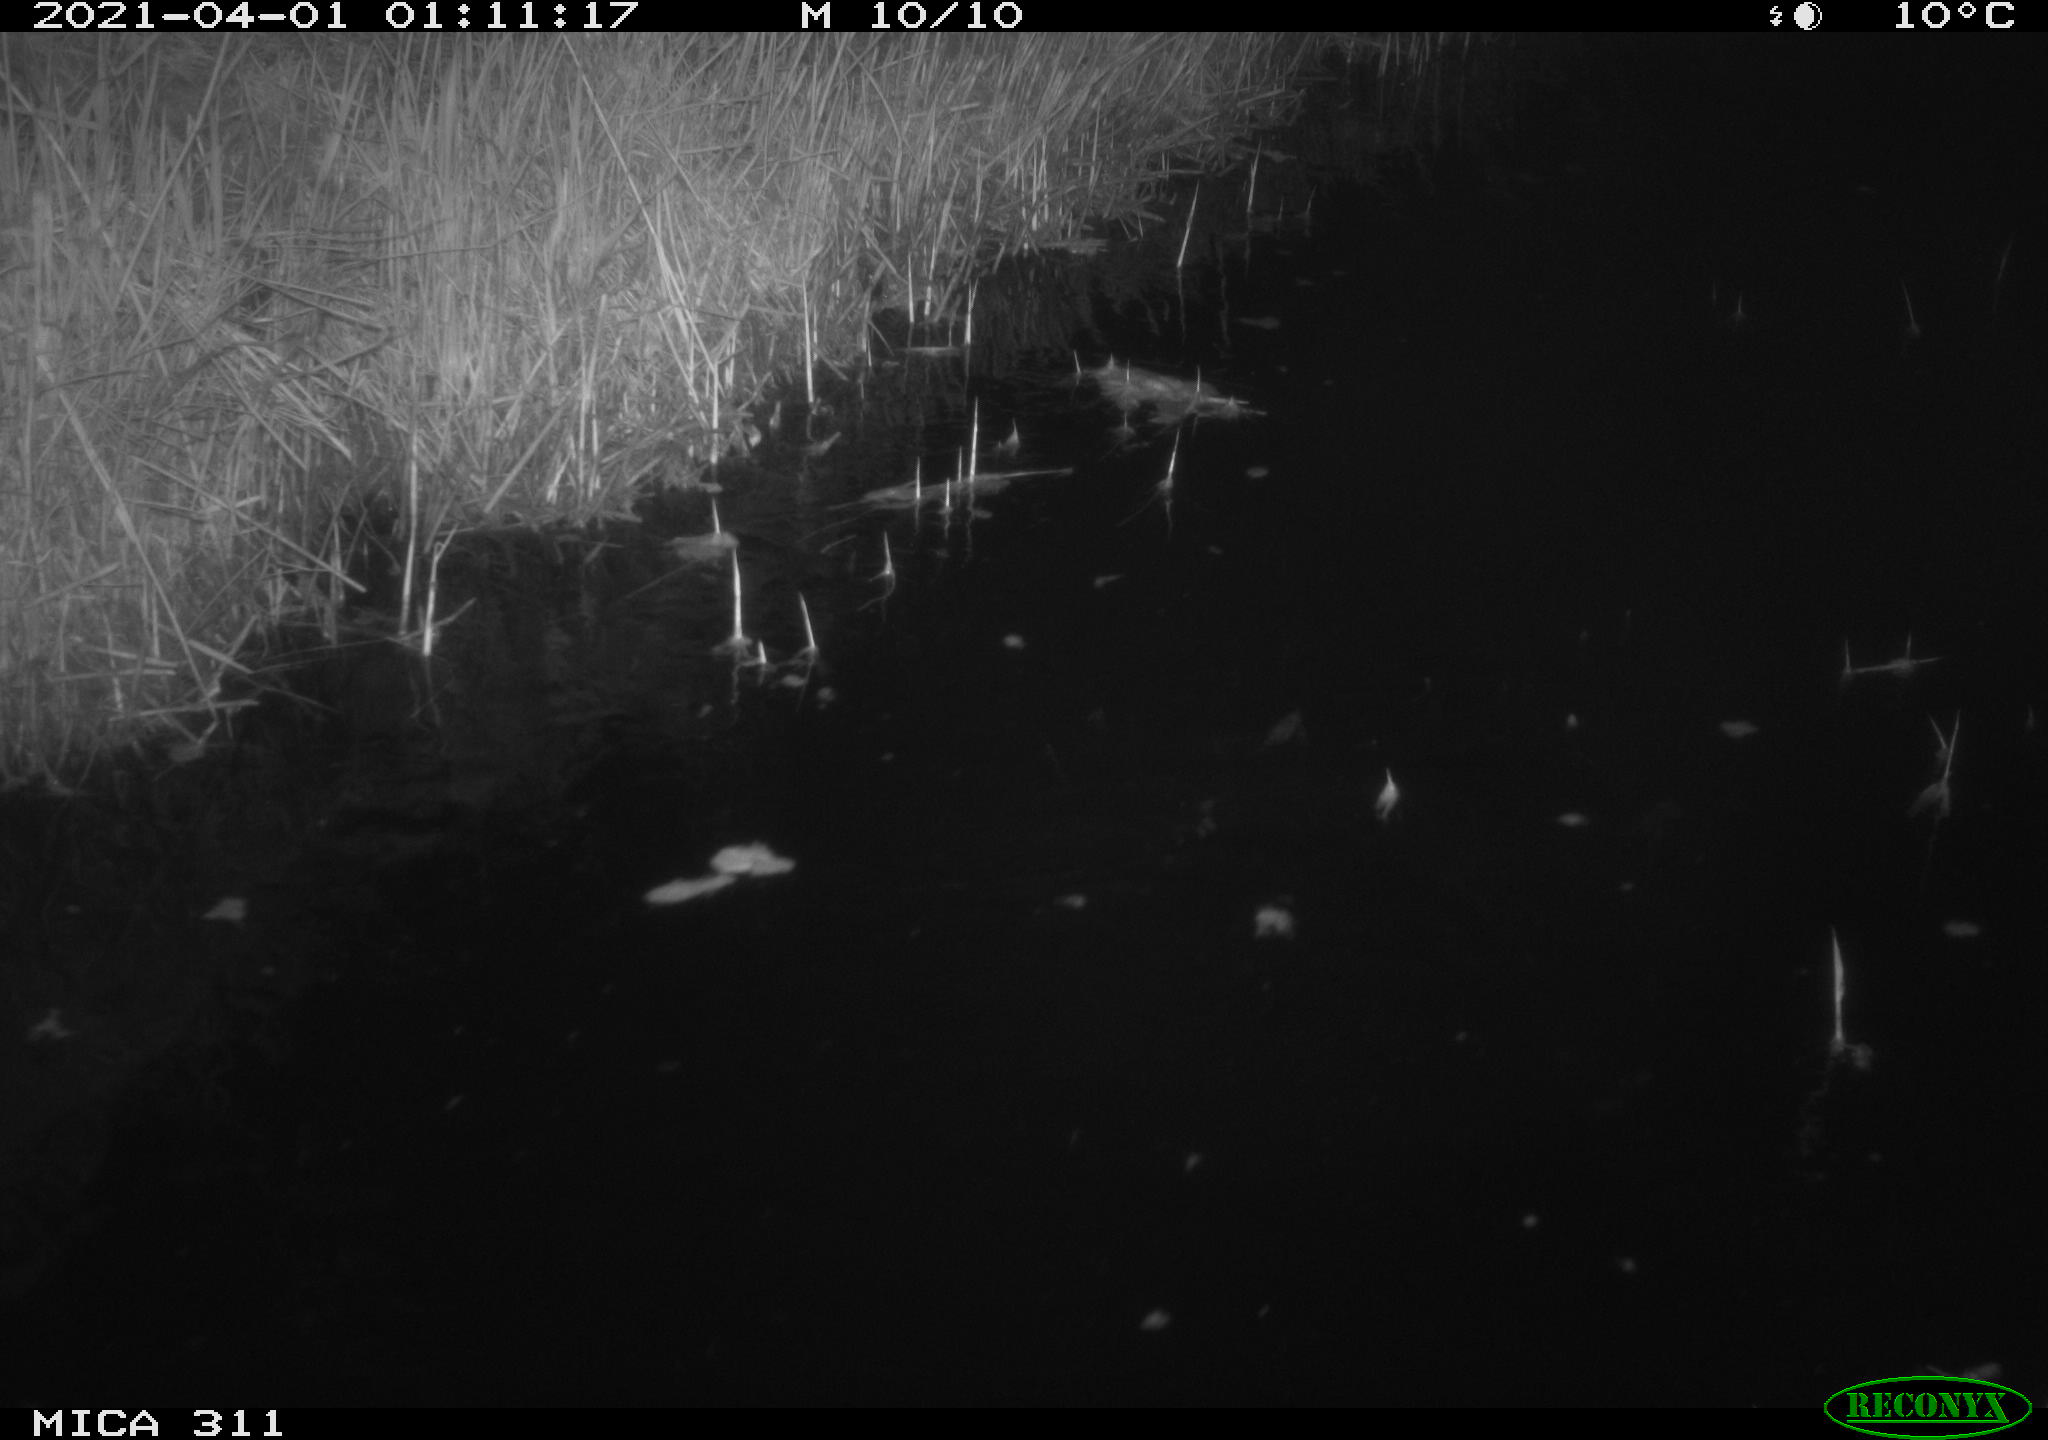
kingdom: Animalia
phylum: Chordata
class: Aves
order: Anseriformes
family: Anatidae
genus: Anas
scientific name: Anas platyrhynchos
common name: Mallard
